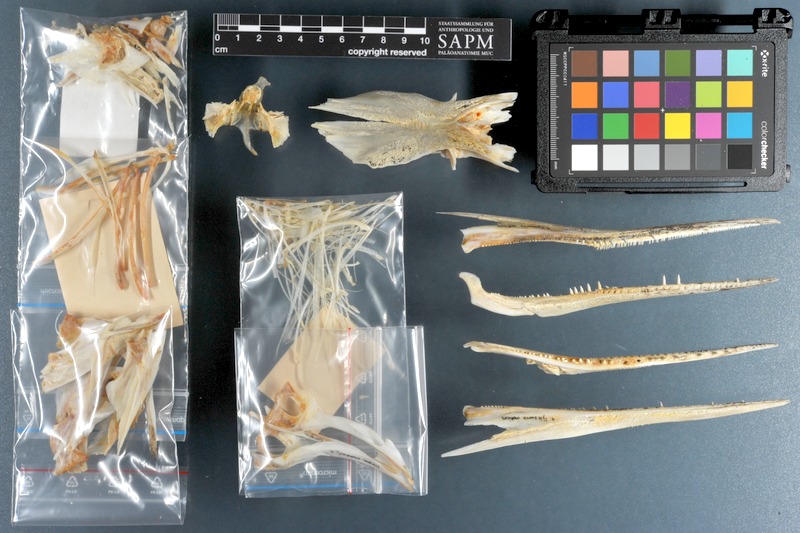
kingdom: Animalia
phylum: Chordata
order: Beloniformes
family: Belonidae
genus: Tylosurus
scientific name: Tylosurus crocodilus
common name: Houndfish
